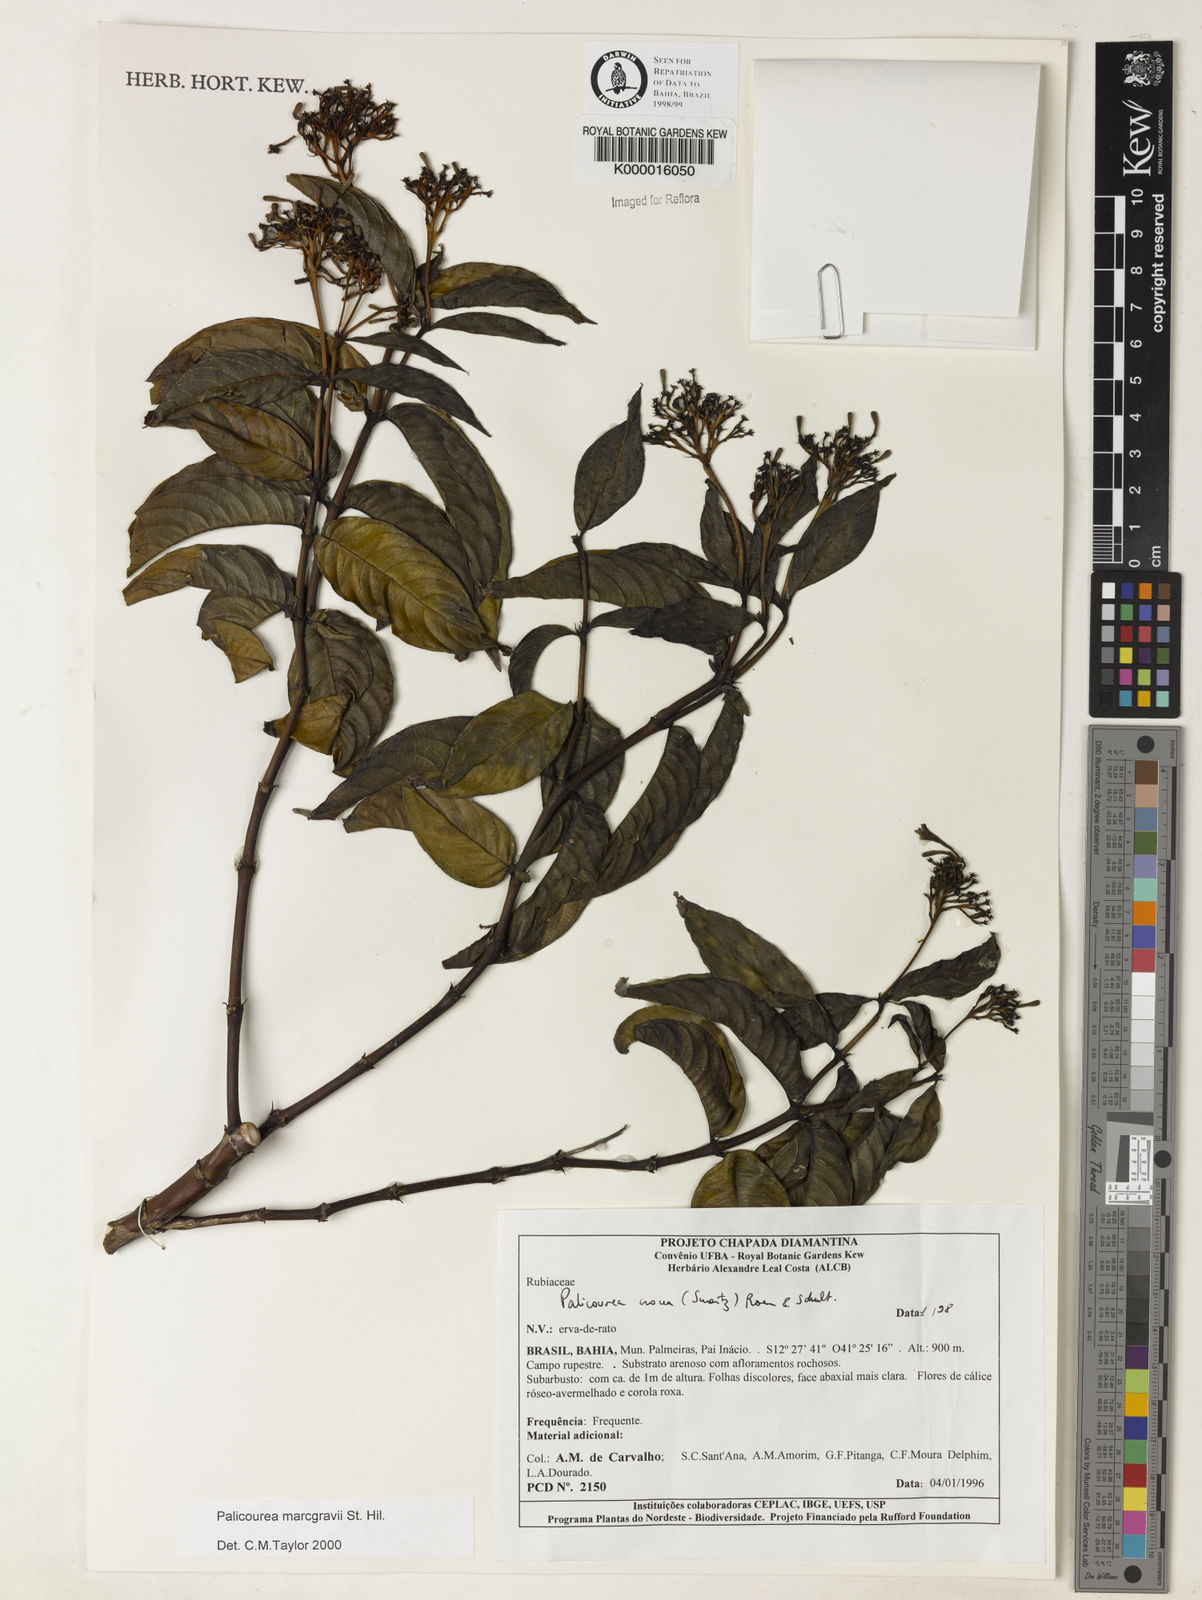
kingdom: Plantae
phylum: Tracheophyta
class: Magnoliopsida
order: Gentianales
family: Rubiaceae
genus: Palicourea
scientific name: Palicourea marcgravii
